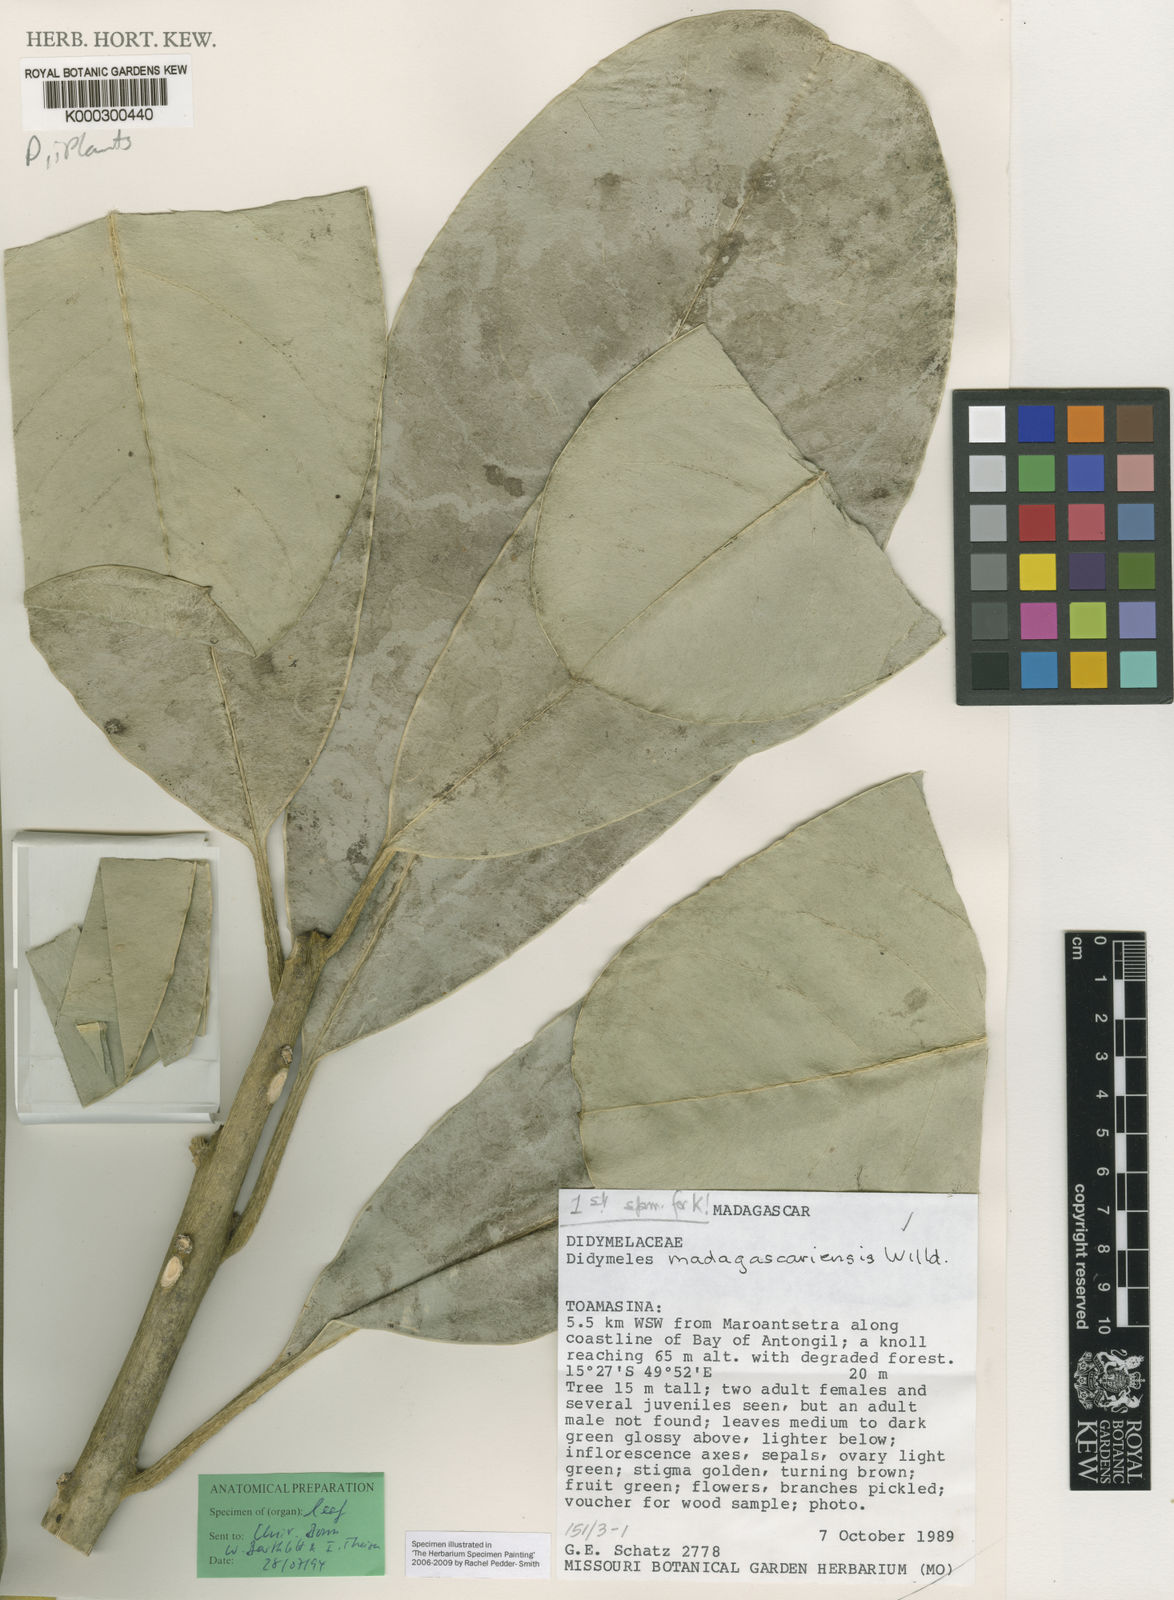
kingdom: Plantae
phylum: Tracheophyta
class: Magnoliopsida
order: Buxales
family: Didymelaceae
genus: Didymeles
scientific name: Didymeles integrifolia
